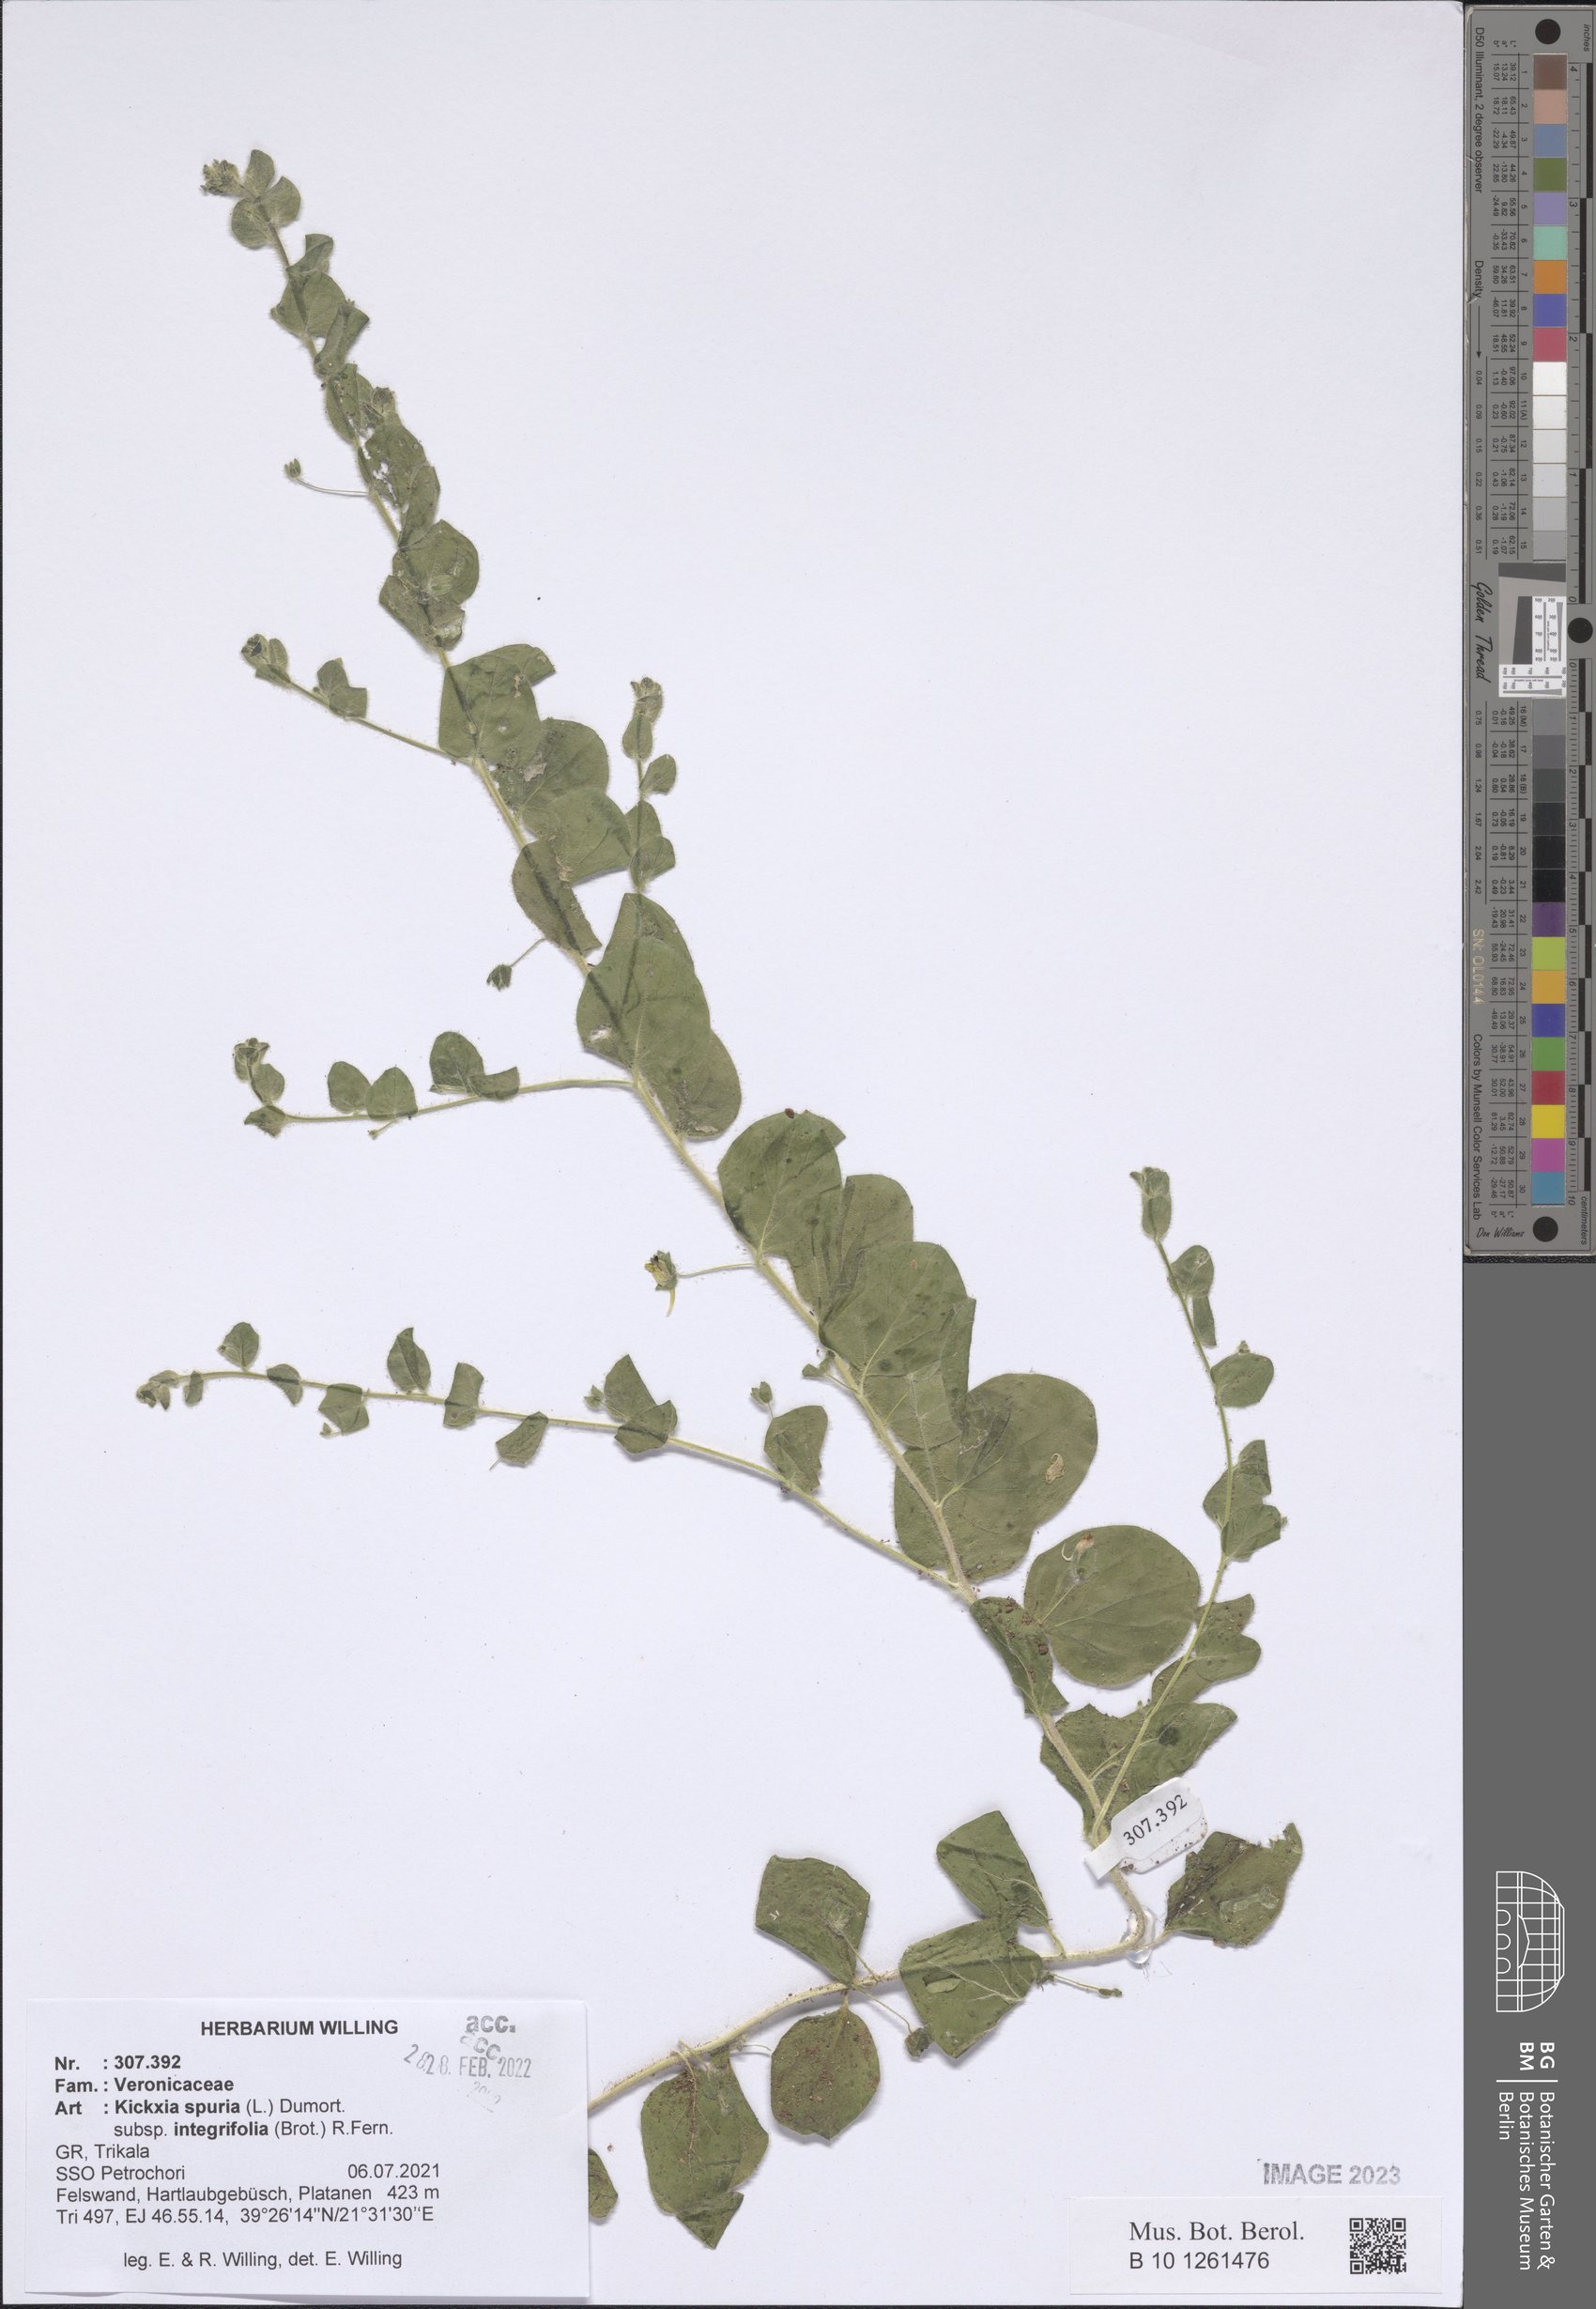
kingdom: Plantae
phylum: Tracheophyta
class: Magnoliopsida
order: Lamiales
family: Plantaginaceae
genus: Kickxia
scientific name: Kickxia spuria
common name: Round-leaved fluellen
